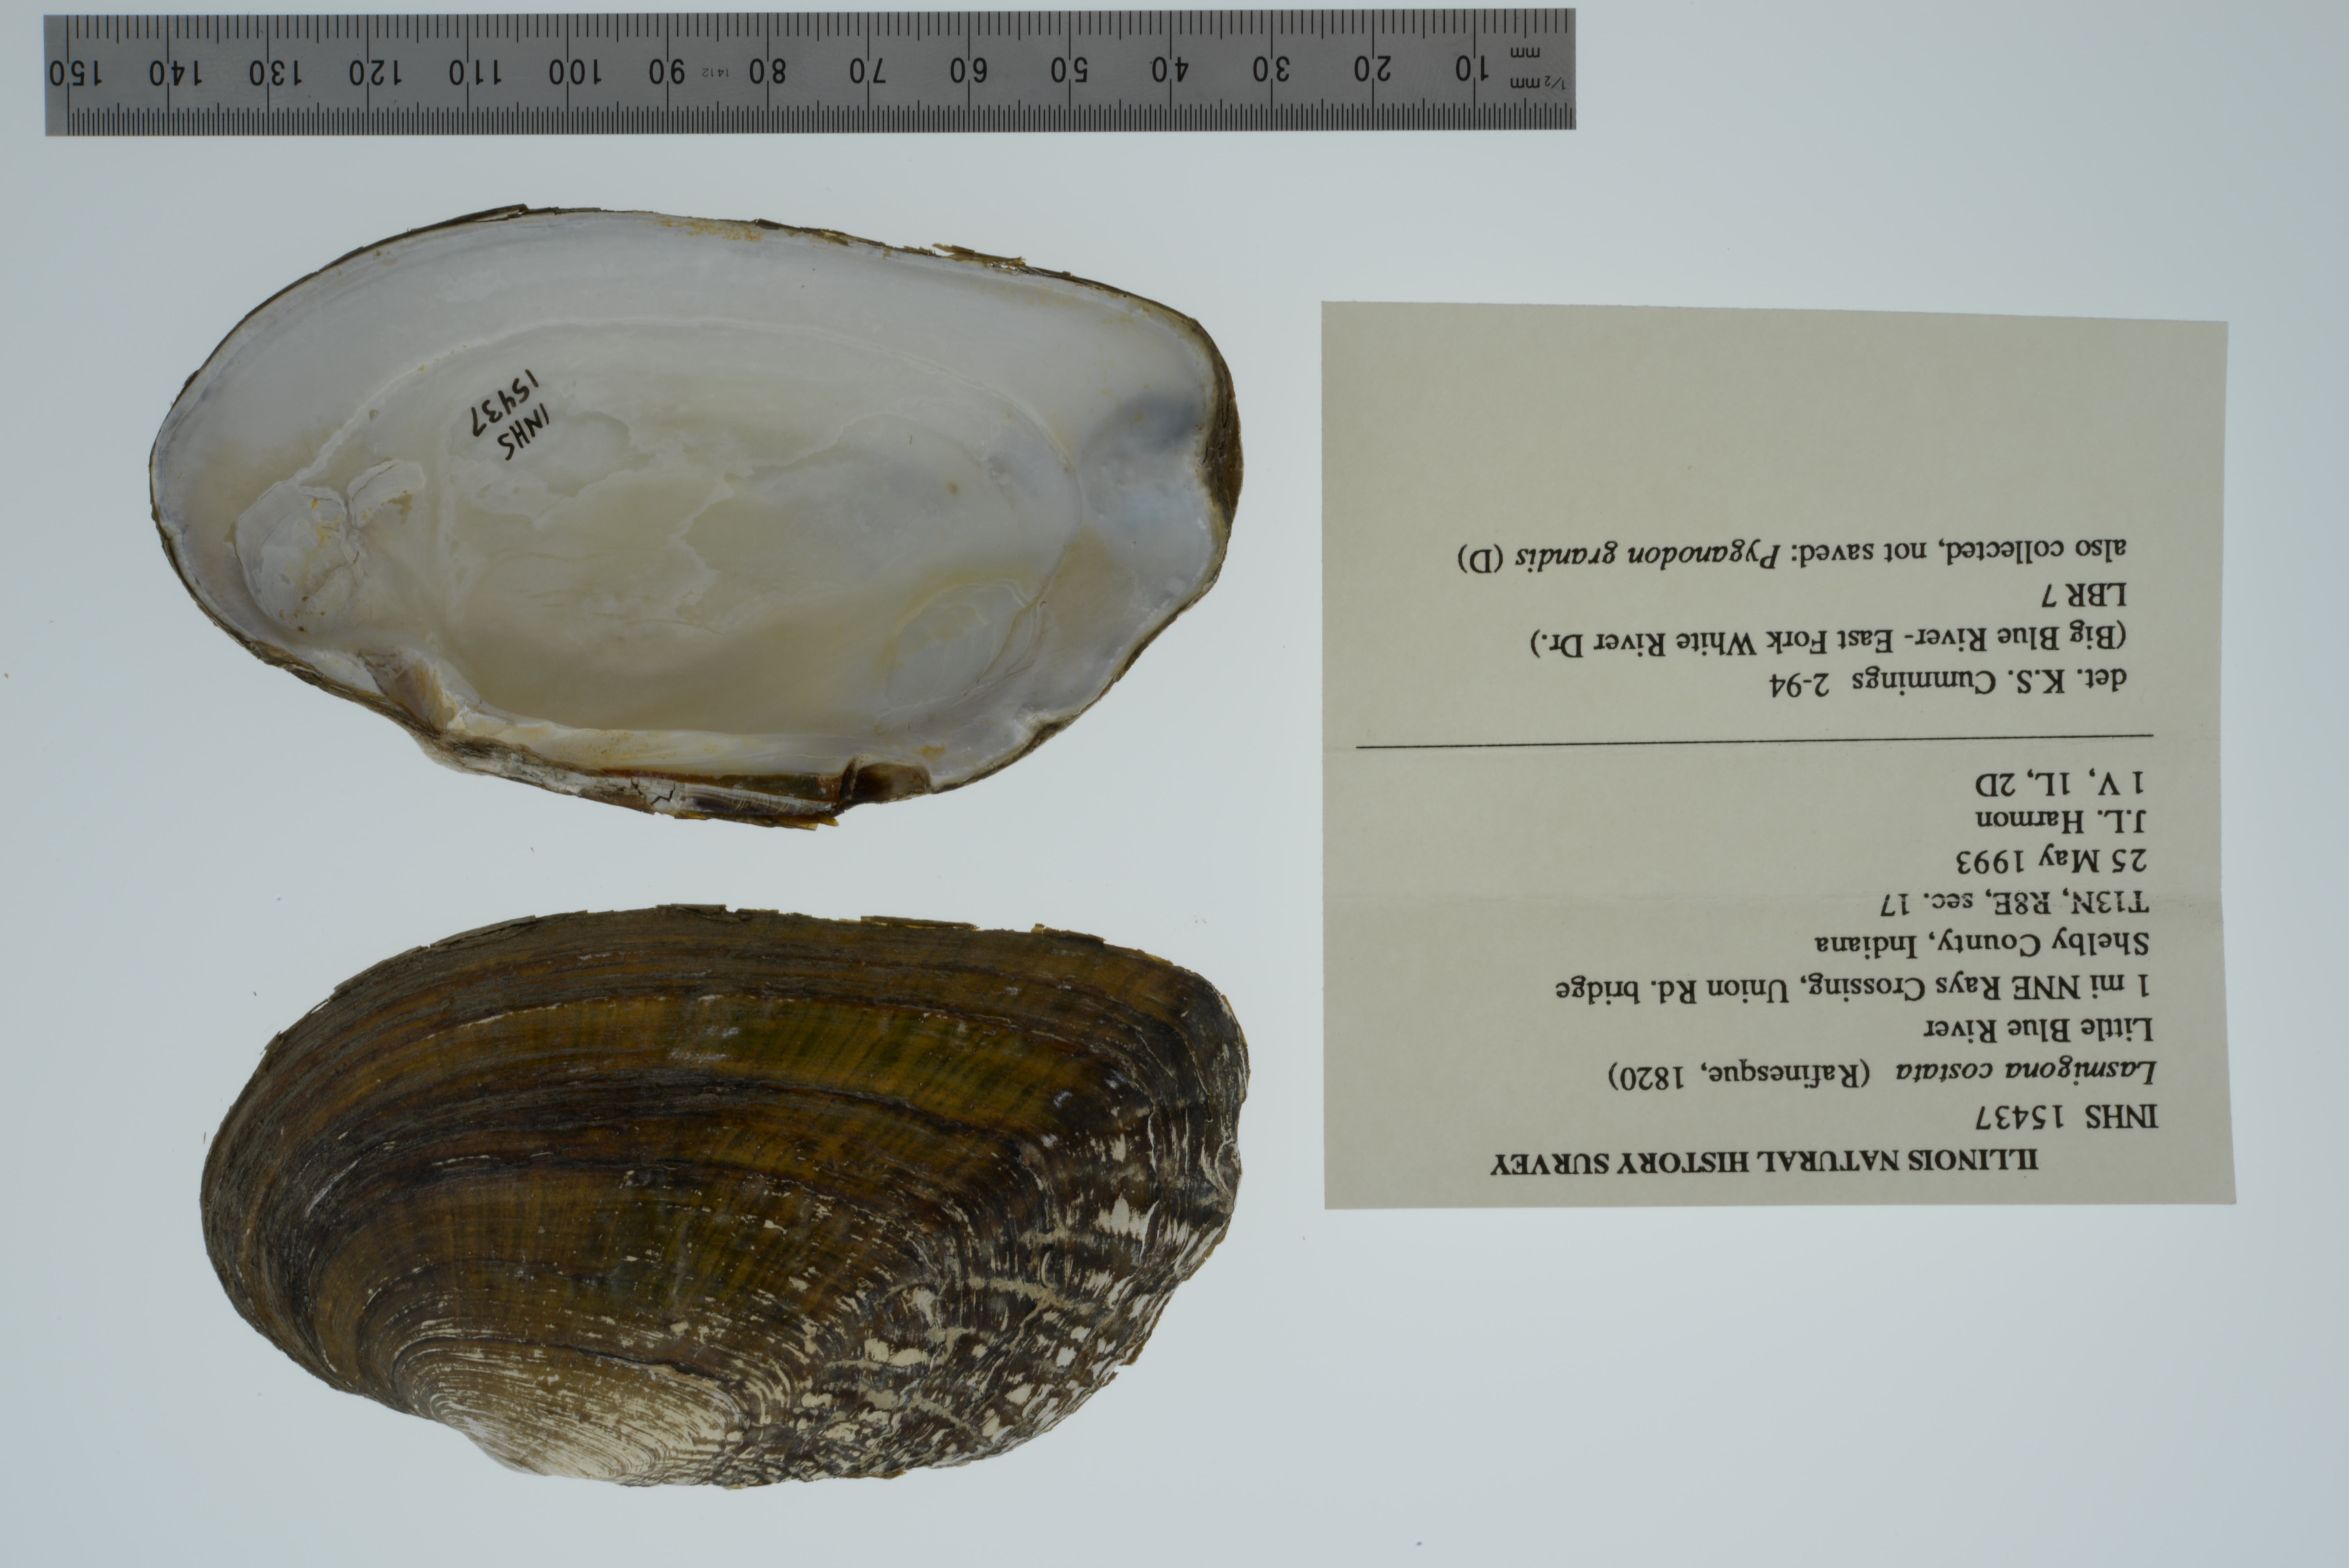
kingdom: Animalia
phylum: Mollusca
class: Bivalvia
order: Unionida
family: Unionidae
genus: Lasmigona
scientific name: Lasmigona costata
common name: Flutedshell
